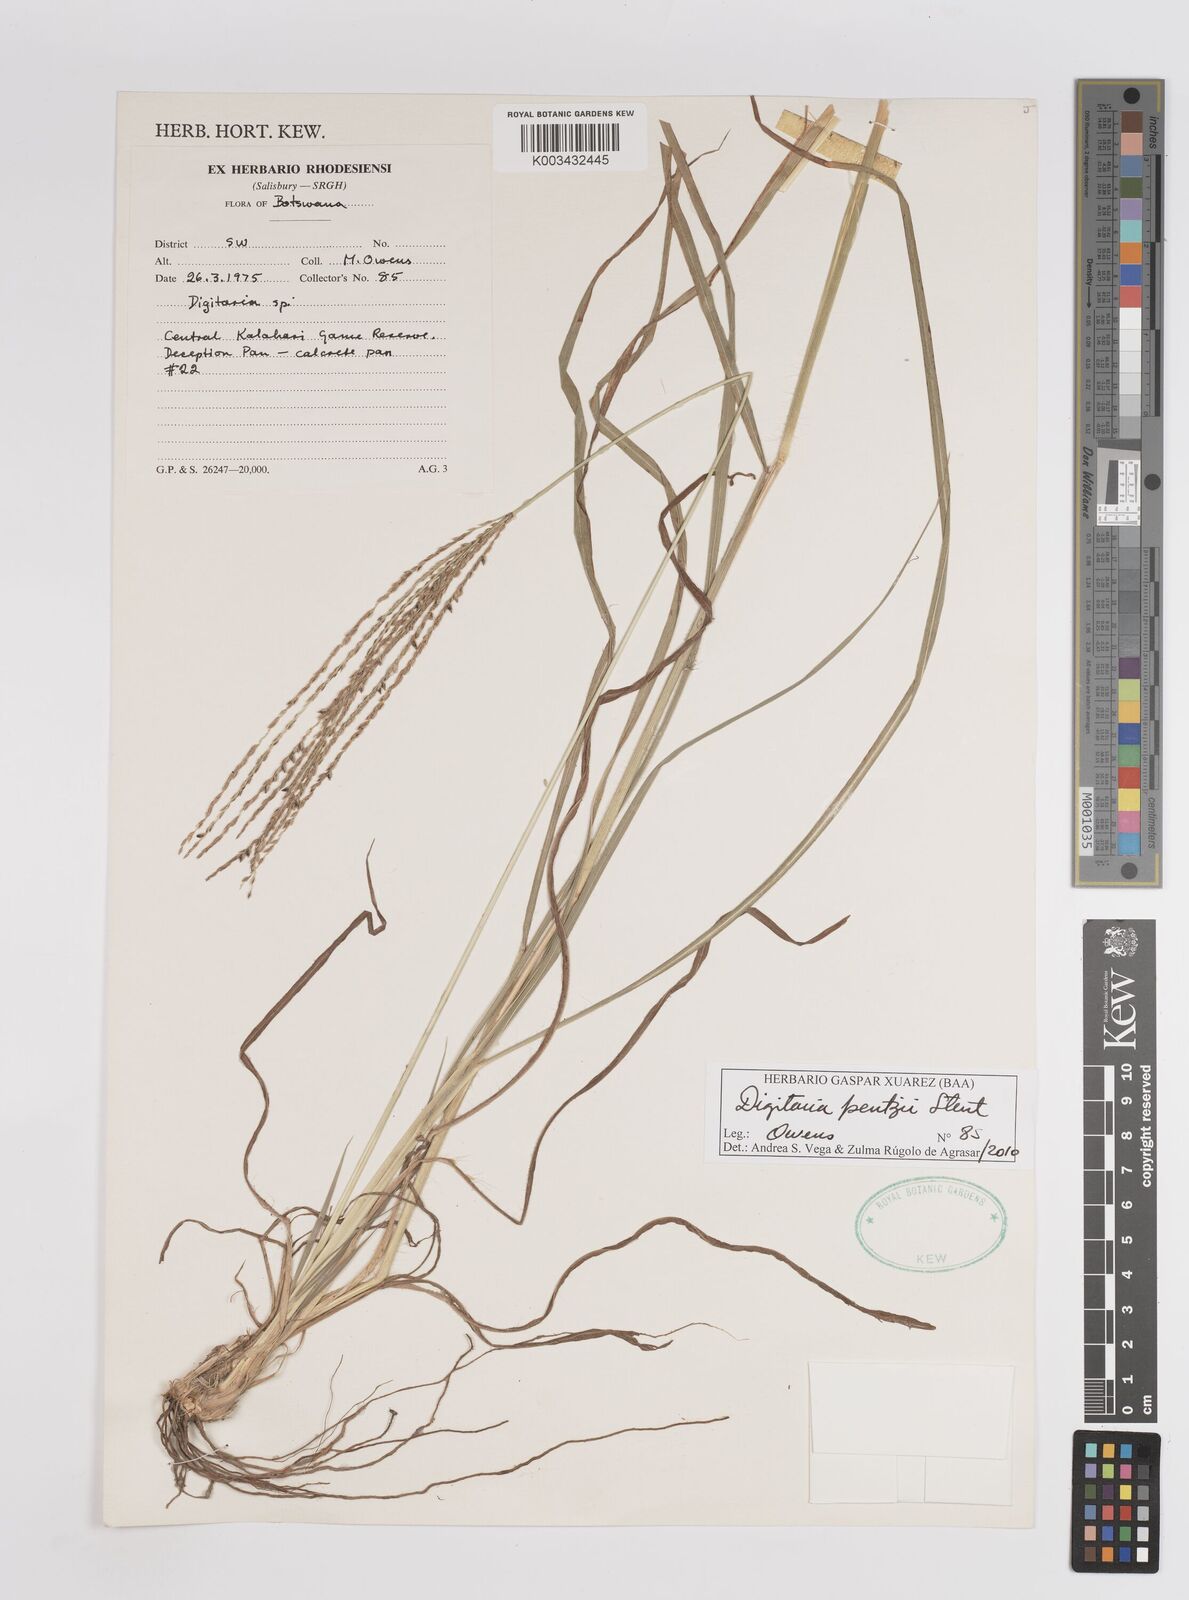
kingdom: Plantae
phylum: Tracheophyta
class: Liliopsida
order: Poales
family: Poaceae
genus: Digitaria
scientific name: Digitaria eriantha
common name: Digitgrass
